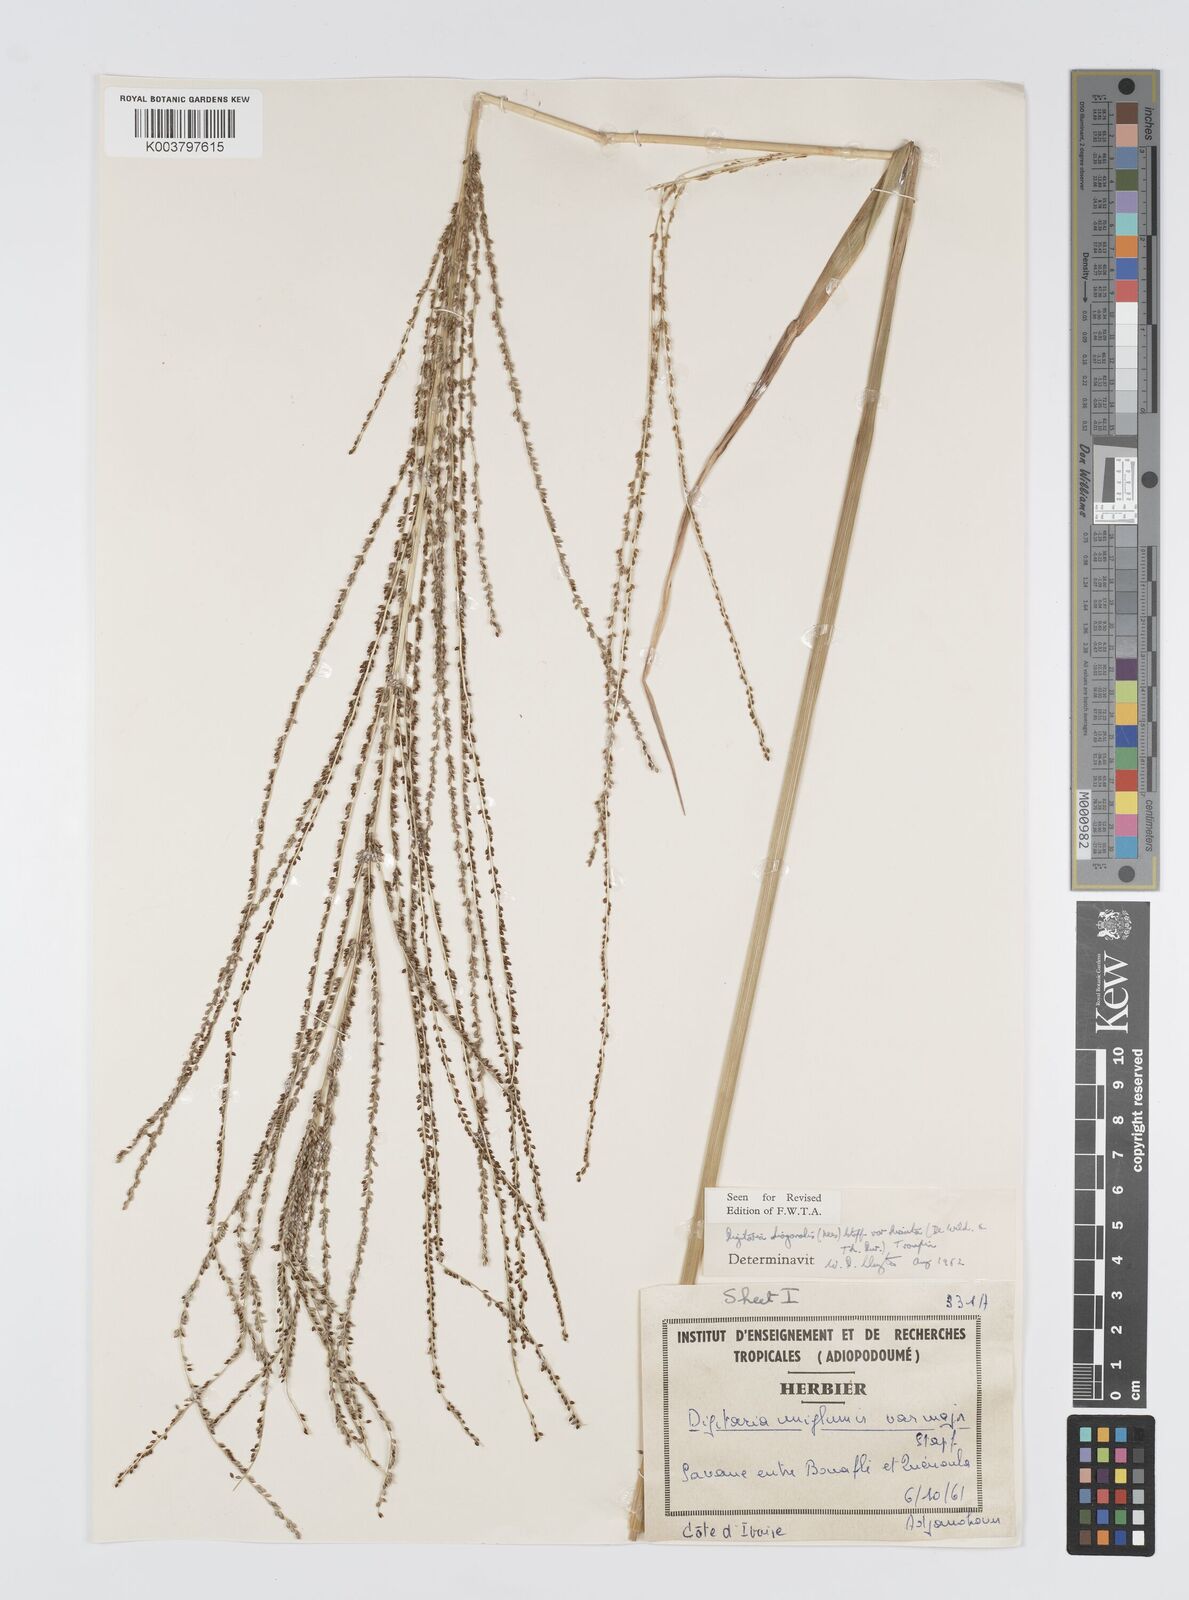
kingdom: Plantae
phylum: Tracheophyta
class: Liliopsida
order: Poales
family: Poaceae
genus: Digitaria
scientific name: Digitaria diagonalis
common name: Brown-seed finger grass
